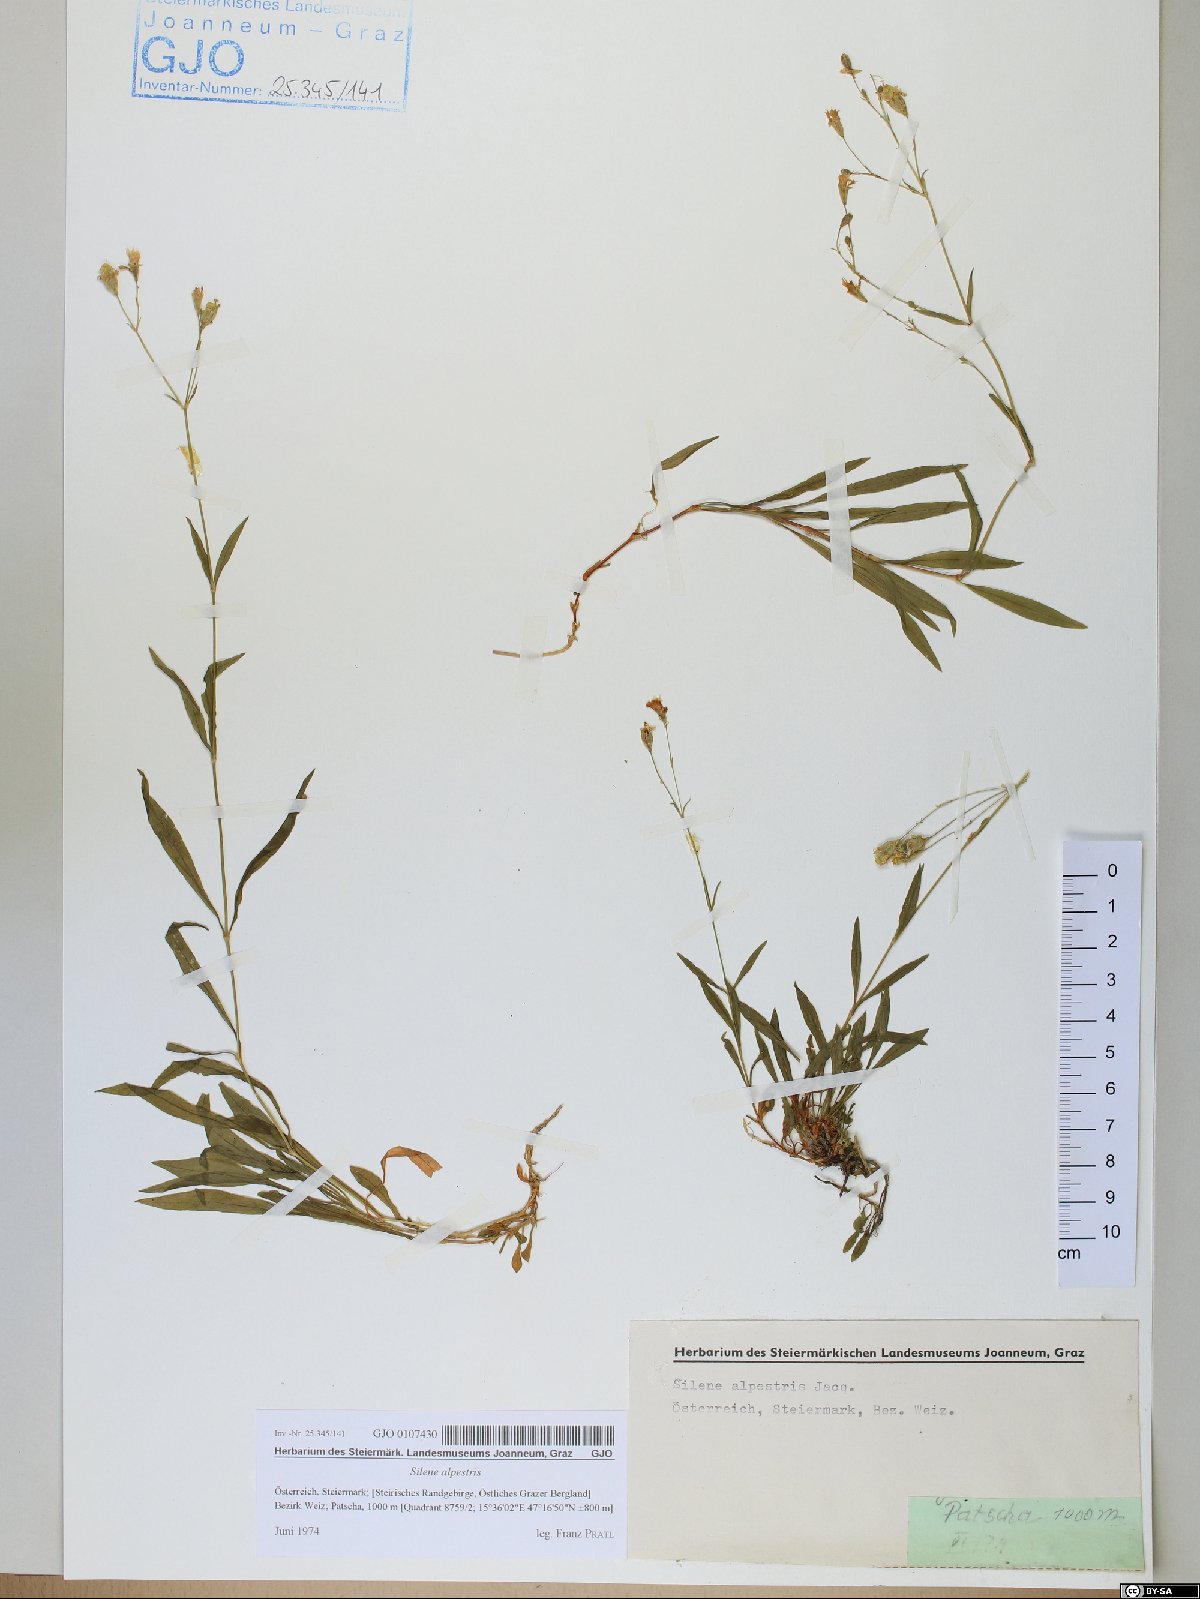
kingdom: Plantae
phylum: Tracheophyta
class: Magnoliopsida
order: Caryophyllales
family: Caryophyllaceae
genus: Heliosperma
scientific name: Heliosperma alpestre
